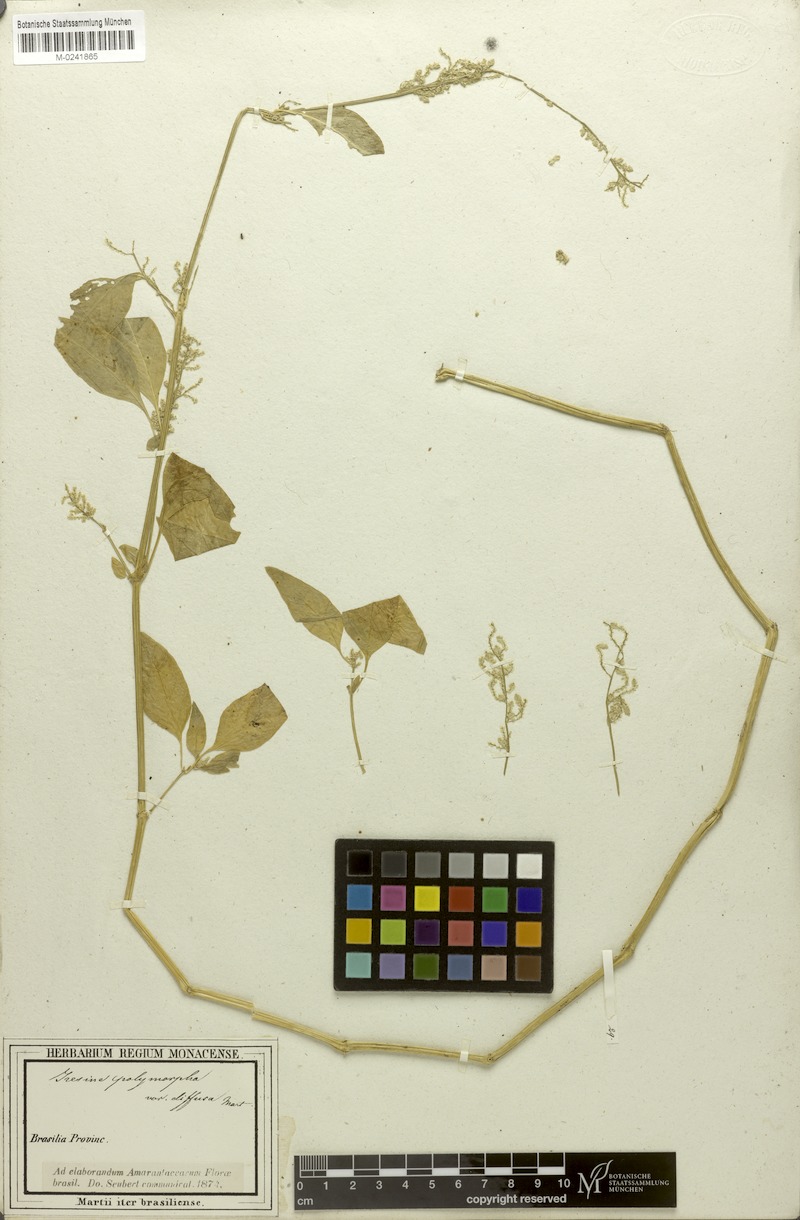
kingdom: Plantae
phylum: Tracheophyta
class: Magnoliopsida
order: Caryophyllales
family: Amaranthaceae
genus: Iresine
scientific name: Iresine diffusa
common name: Juba's-bush
